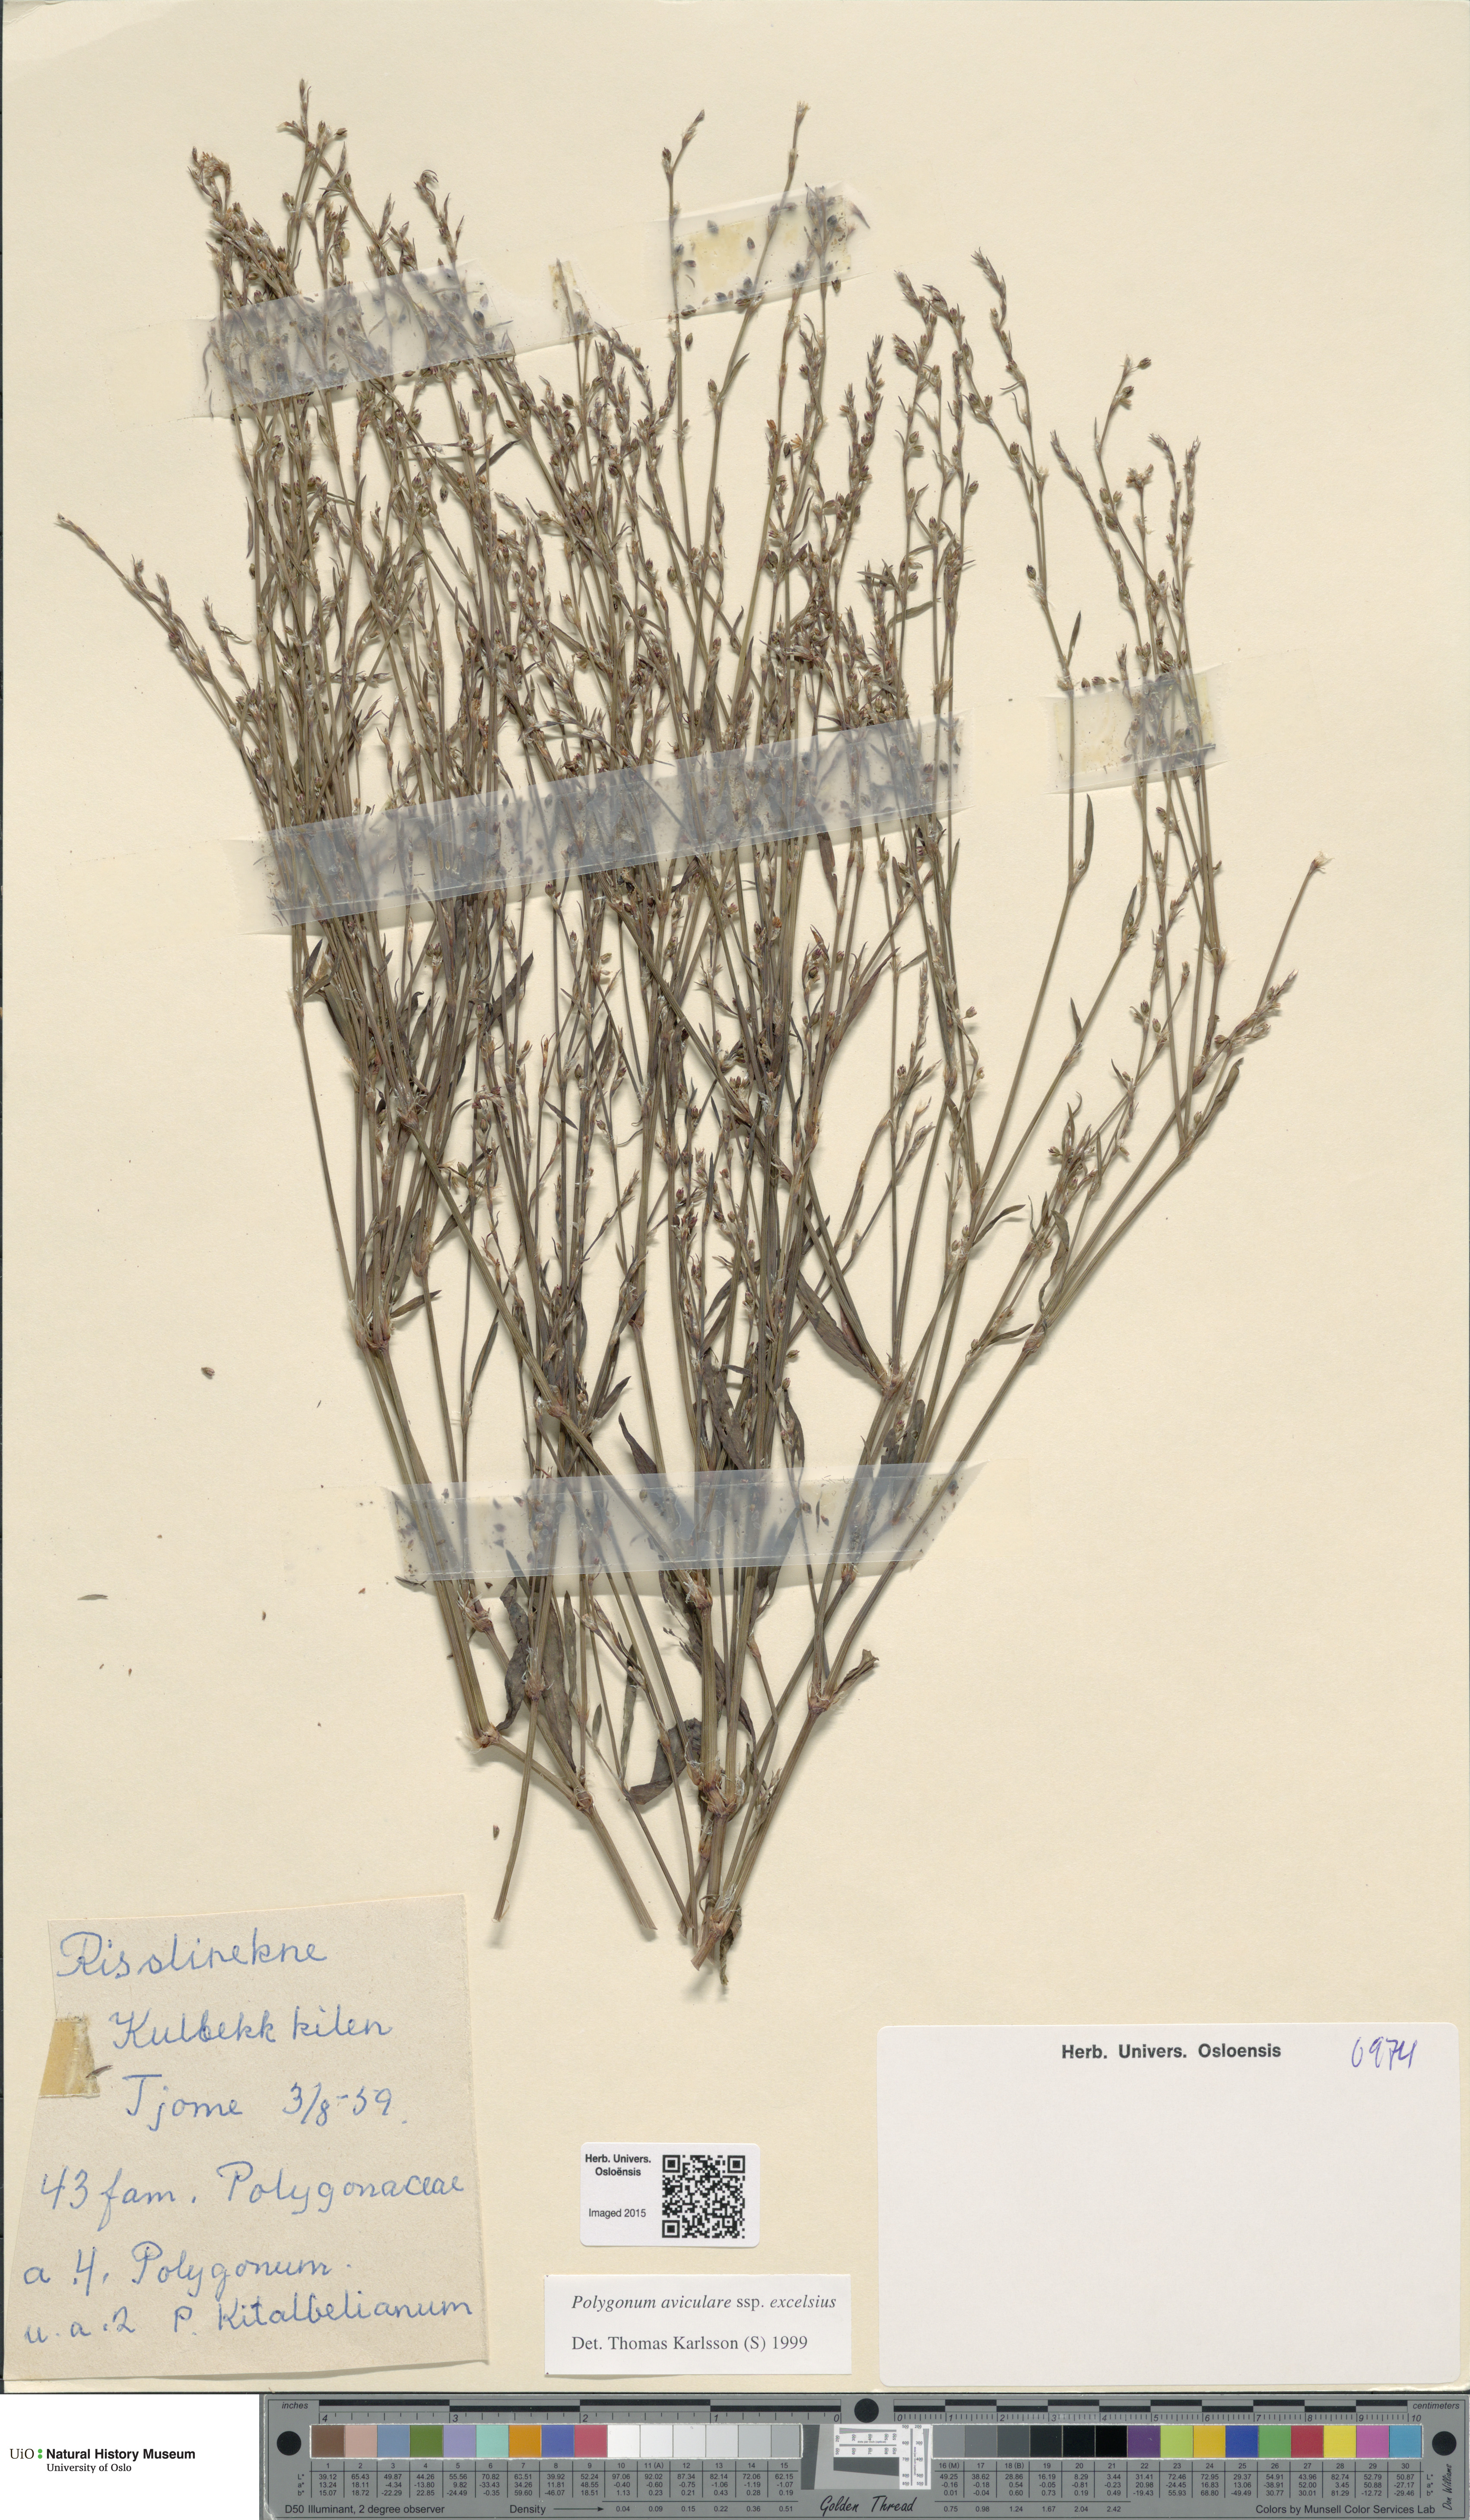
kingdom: Plantae
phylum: Tracheophyta
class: Magnoliopsida
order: Caryophyllales
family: Polygonaceae
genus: Polygonum
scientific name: Polygonum excelsius
